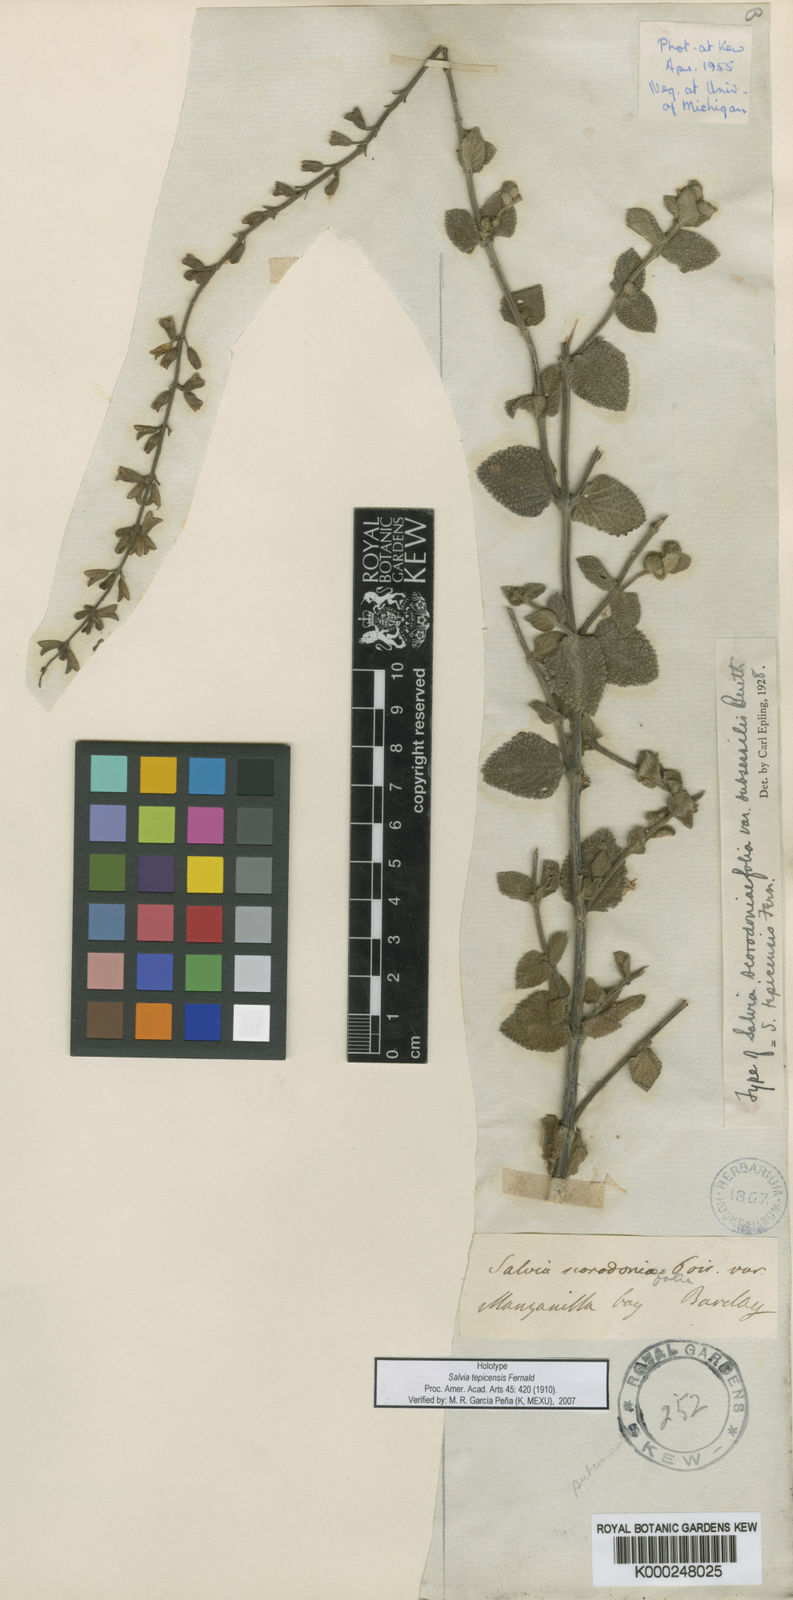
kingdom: Plantae
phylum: Tracheophyta
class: Magnoliopsida
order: Lamiales
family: Lamiaceae
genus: Salvia
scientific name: Salvia
